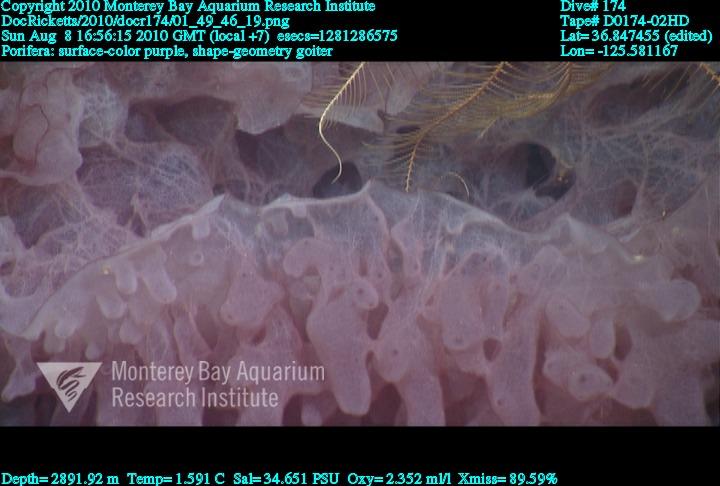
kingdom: Animalia
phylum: Porifera
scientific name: Porifera
